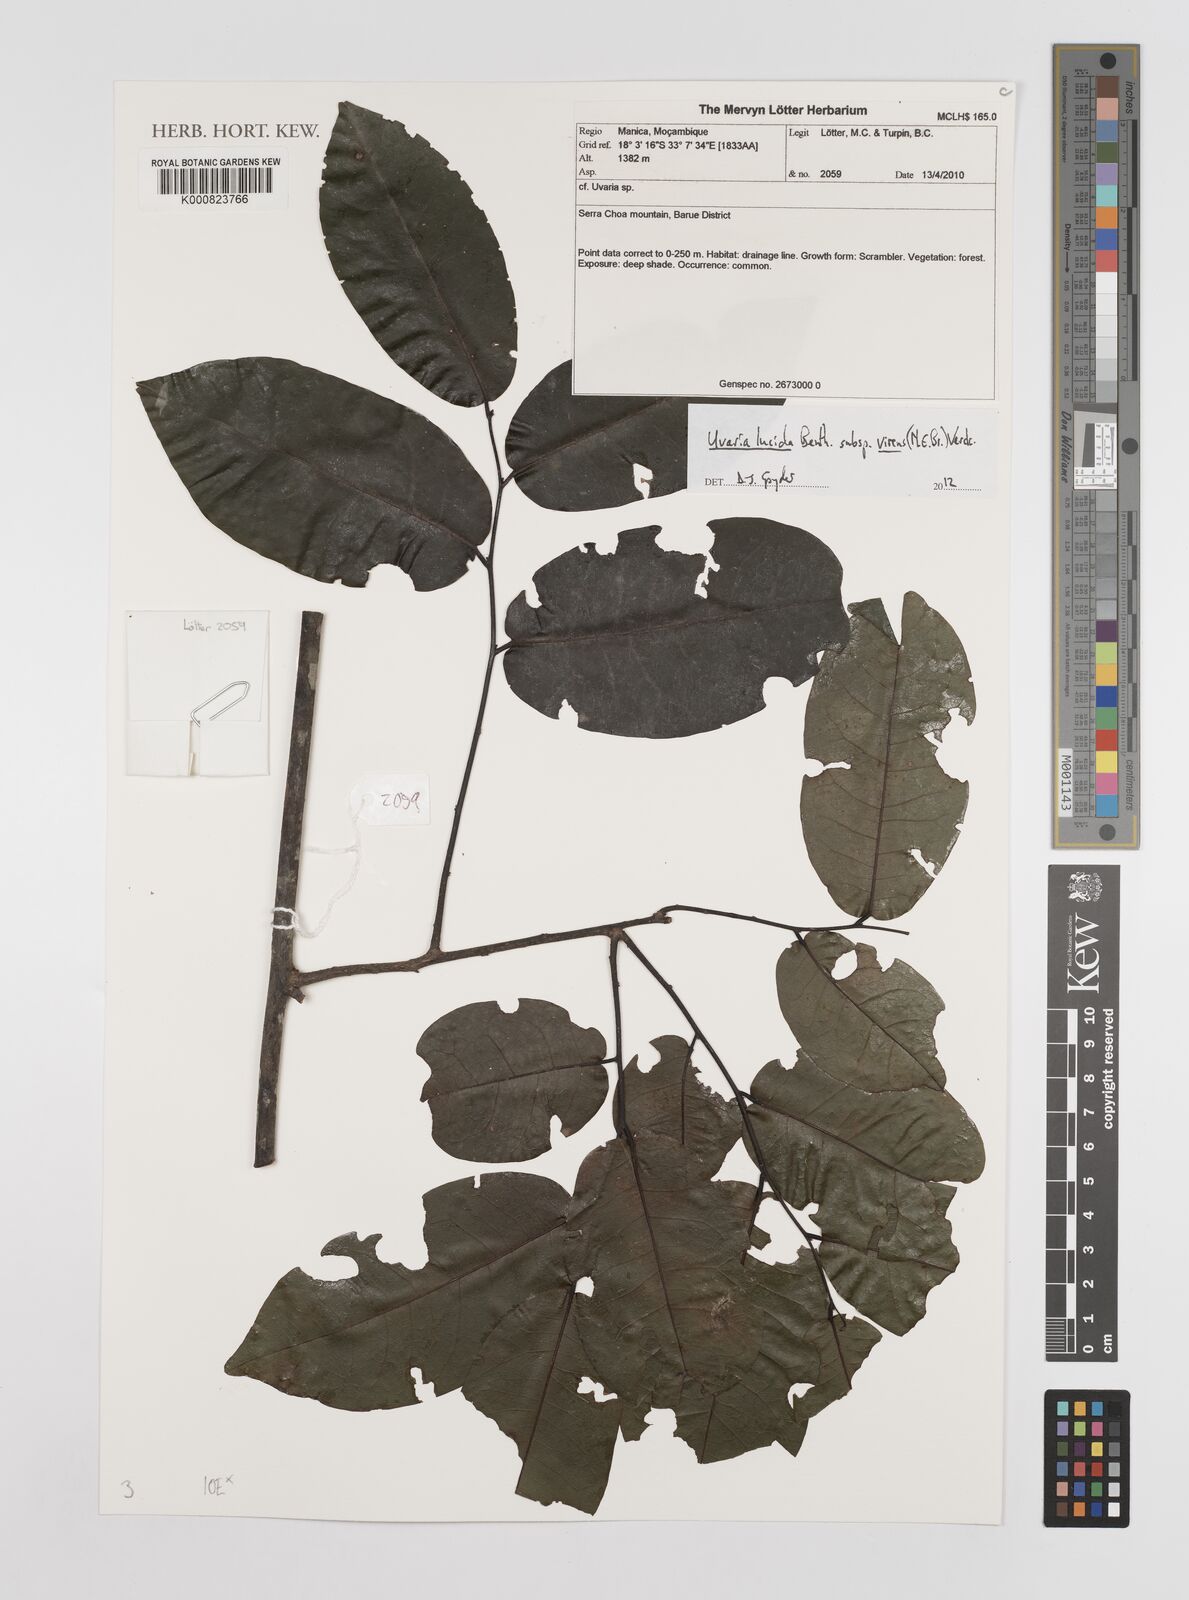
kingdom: Plantae
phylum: Tracheophyta
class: Magnoliopsida
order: Magnoliales
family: Annonaceae
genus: Uvaria
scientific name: Uvaria lucida
